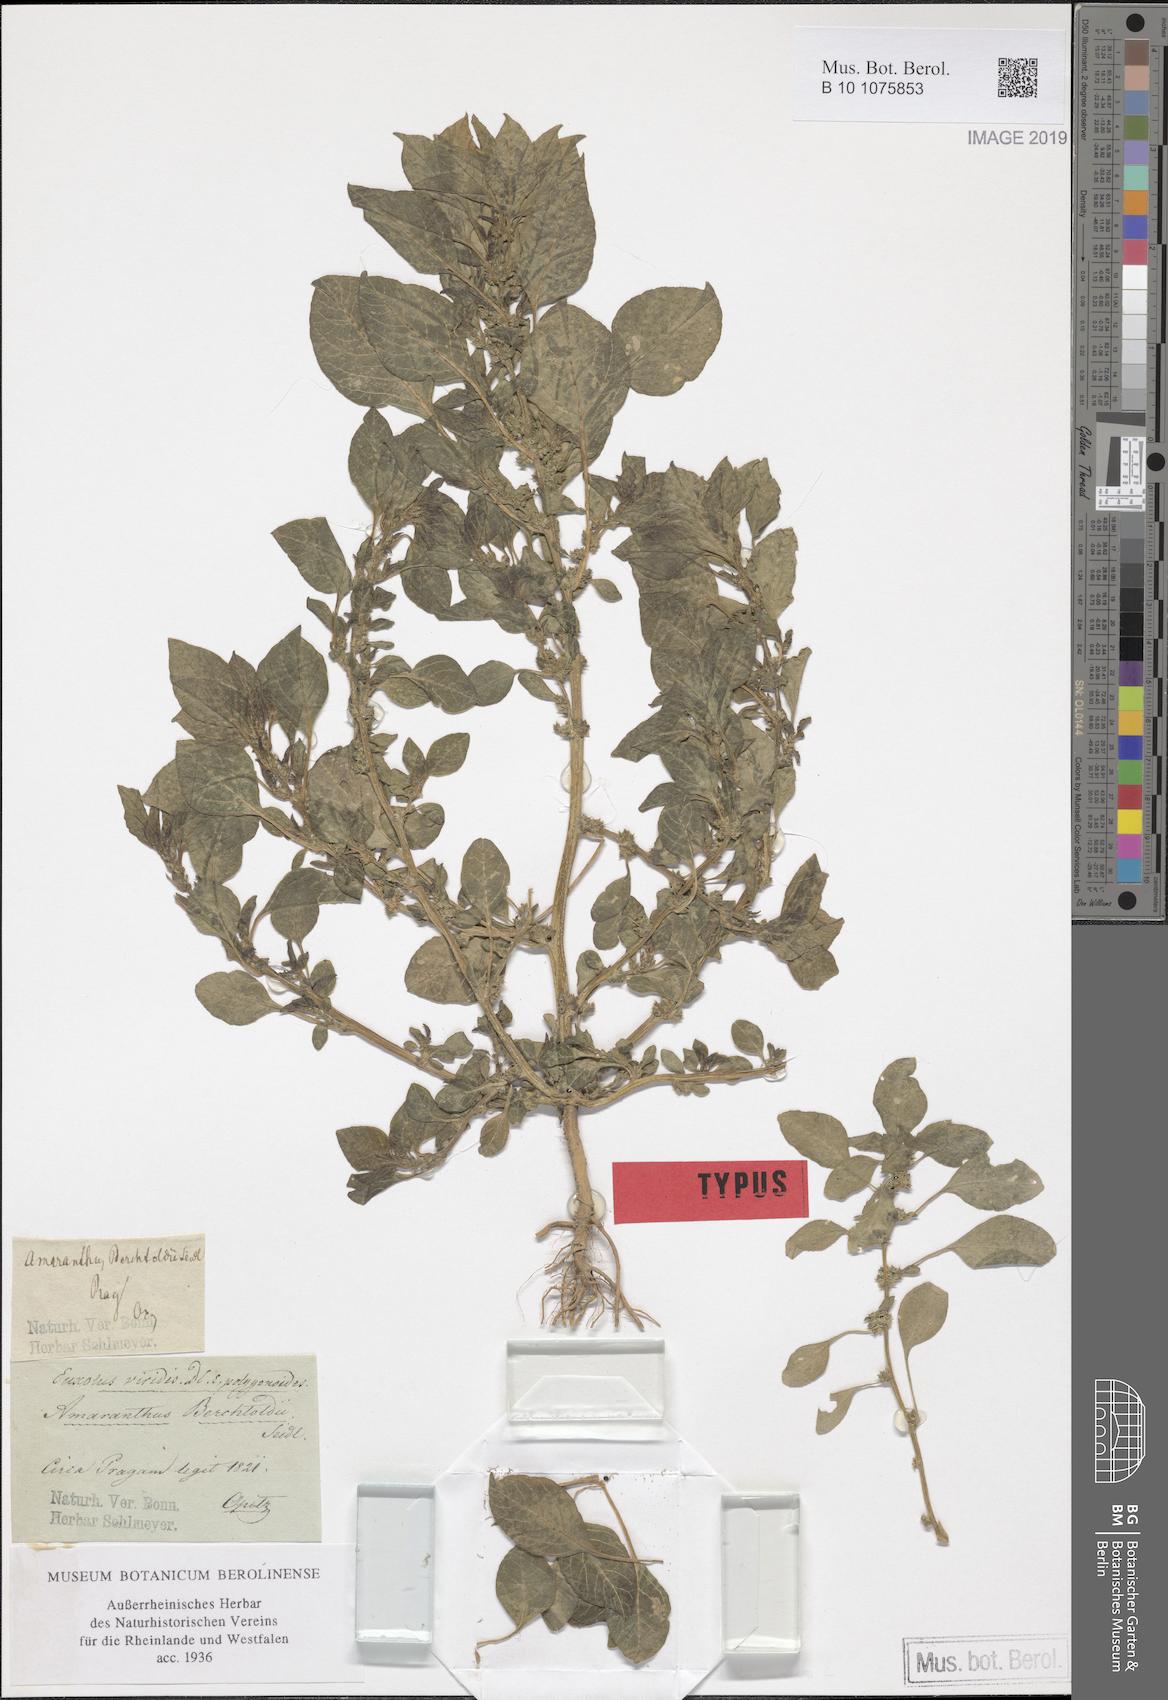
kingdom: Plantae
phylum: Tracheophyta
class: Magnoliopsida
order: Caryophyllales
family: Amaranthaceae
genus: Amaranthus
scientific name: Amaranthus blitum
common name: Purple amaranth
